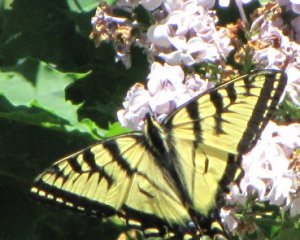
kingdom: Animalia
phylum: Arthropoda
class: Insecta
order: Lepidoptera
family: Papilionidae
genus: Pterourus
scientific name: Pterourus canadensis
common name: Canadian Tiger Swallowtail
